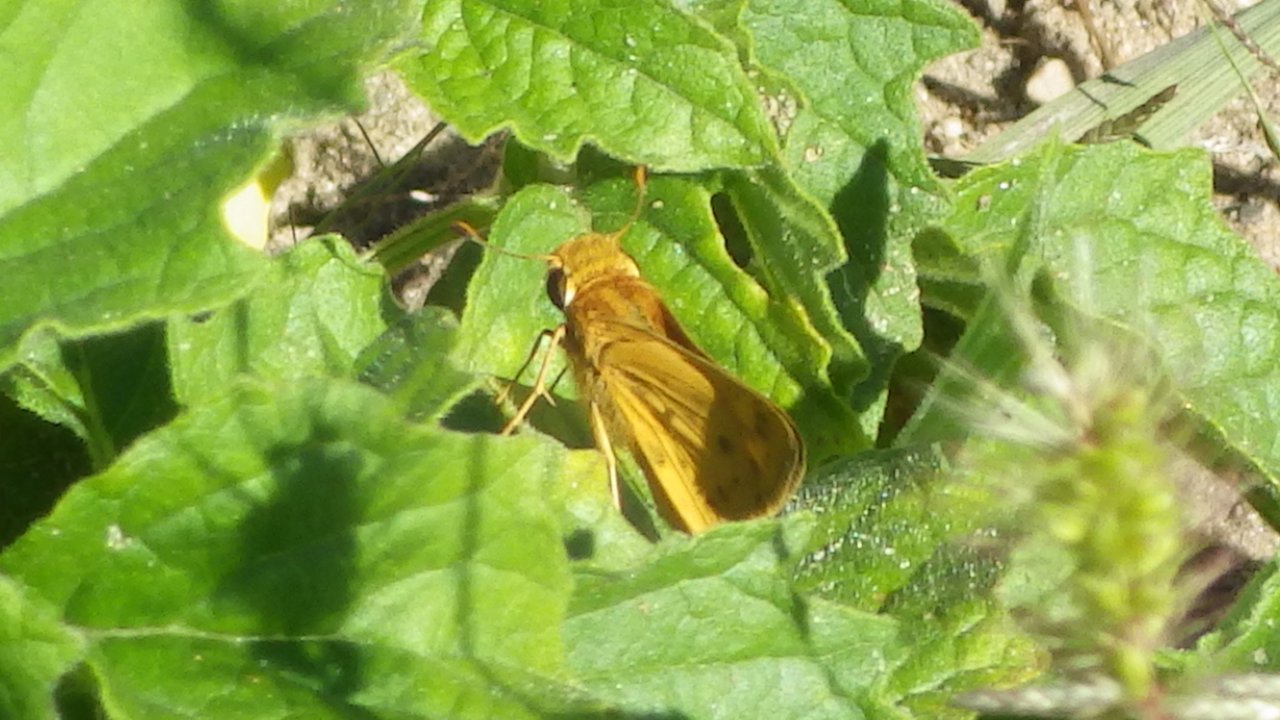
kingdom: Animalia
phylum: Arthropoda
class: Insecta
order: Lepidoptera
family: Hesperiidae
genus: Hylephila
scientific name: Hylephila phyleus
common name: Fiery Skipper
